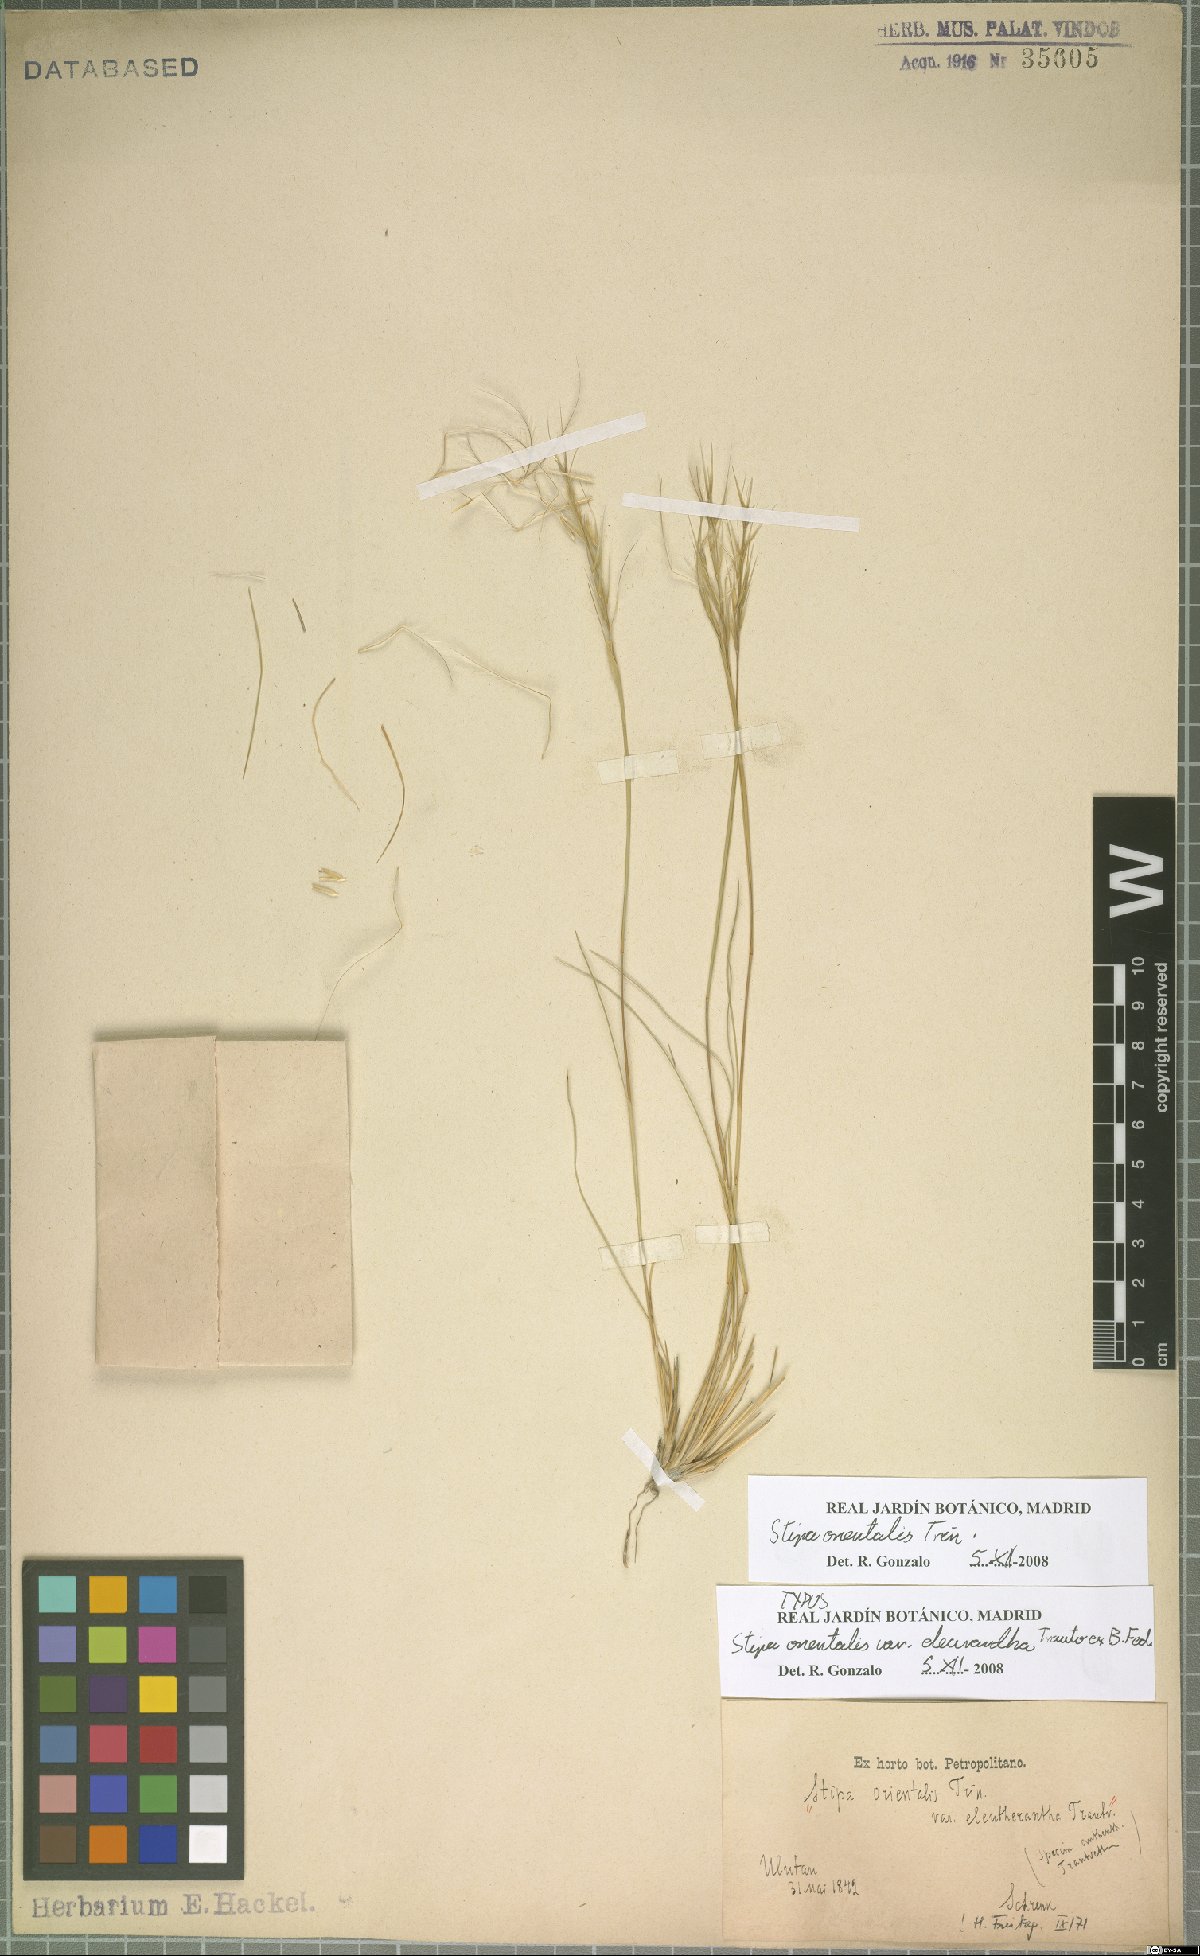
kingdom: Plantae
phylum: Tracheophyta
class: Liliopsida
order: Poales
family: Poaceae
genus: Stipa
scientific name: Stipa orientalis
